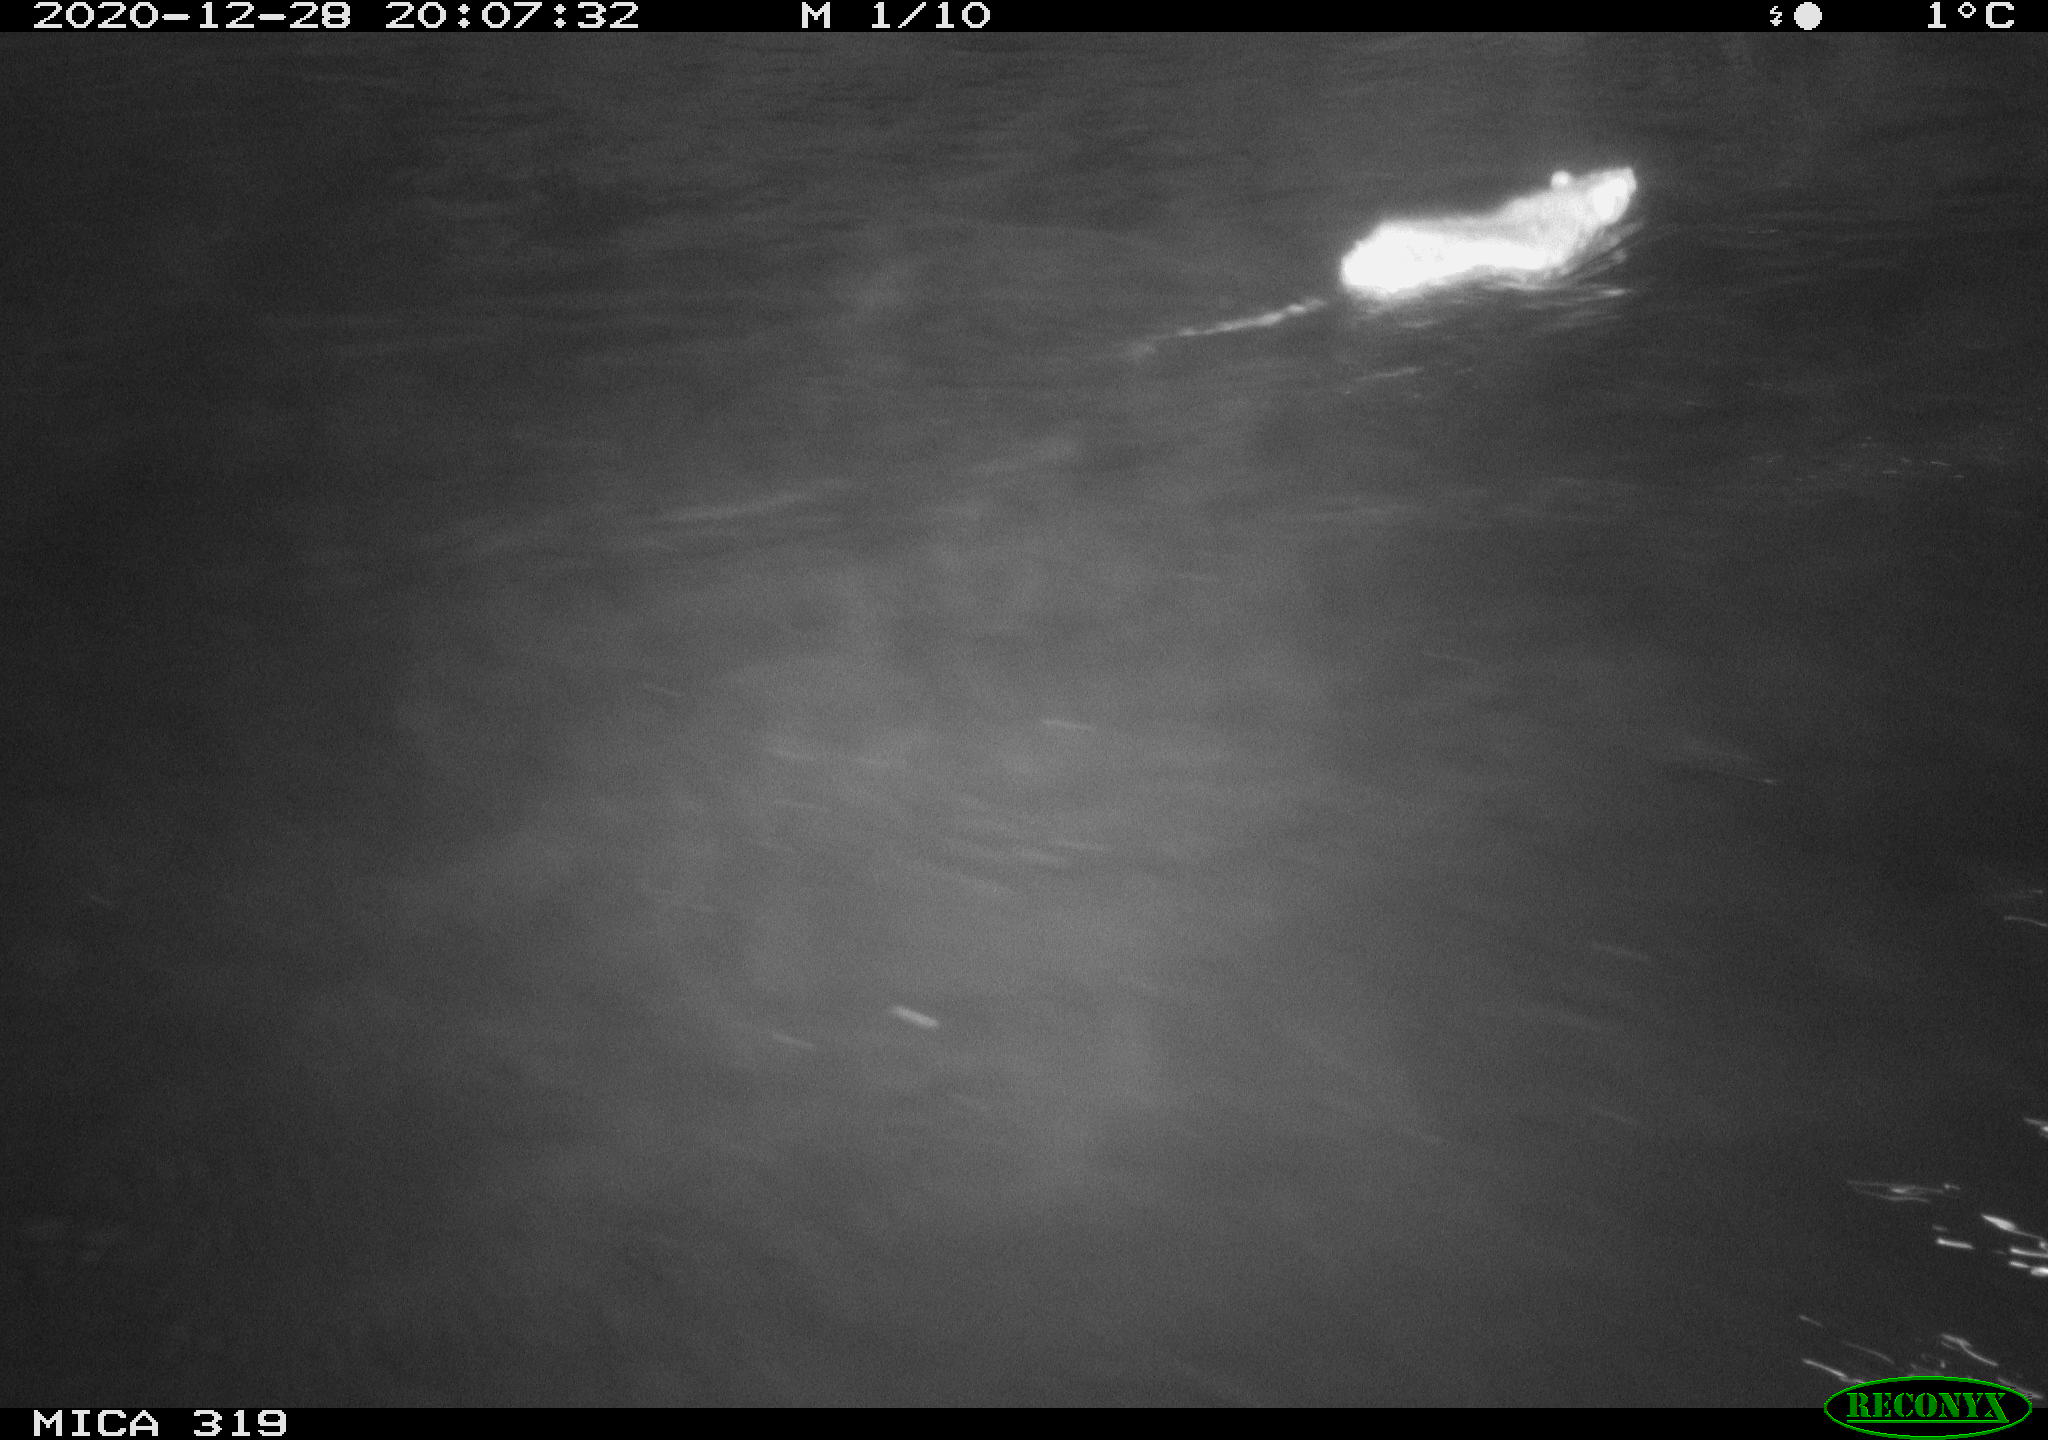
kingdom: Animalia
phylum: Chordata
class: Mammalia
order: Rodentia
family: Muridae
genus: Rattus
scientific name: Rattus norvegicus
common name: Brown rat
